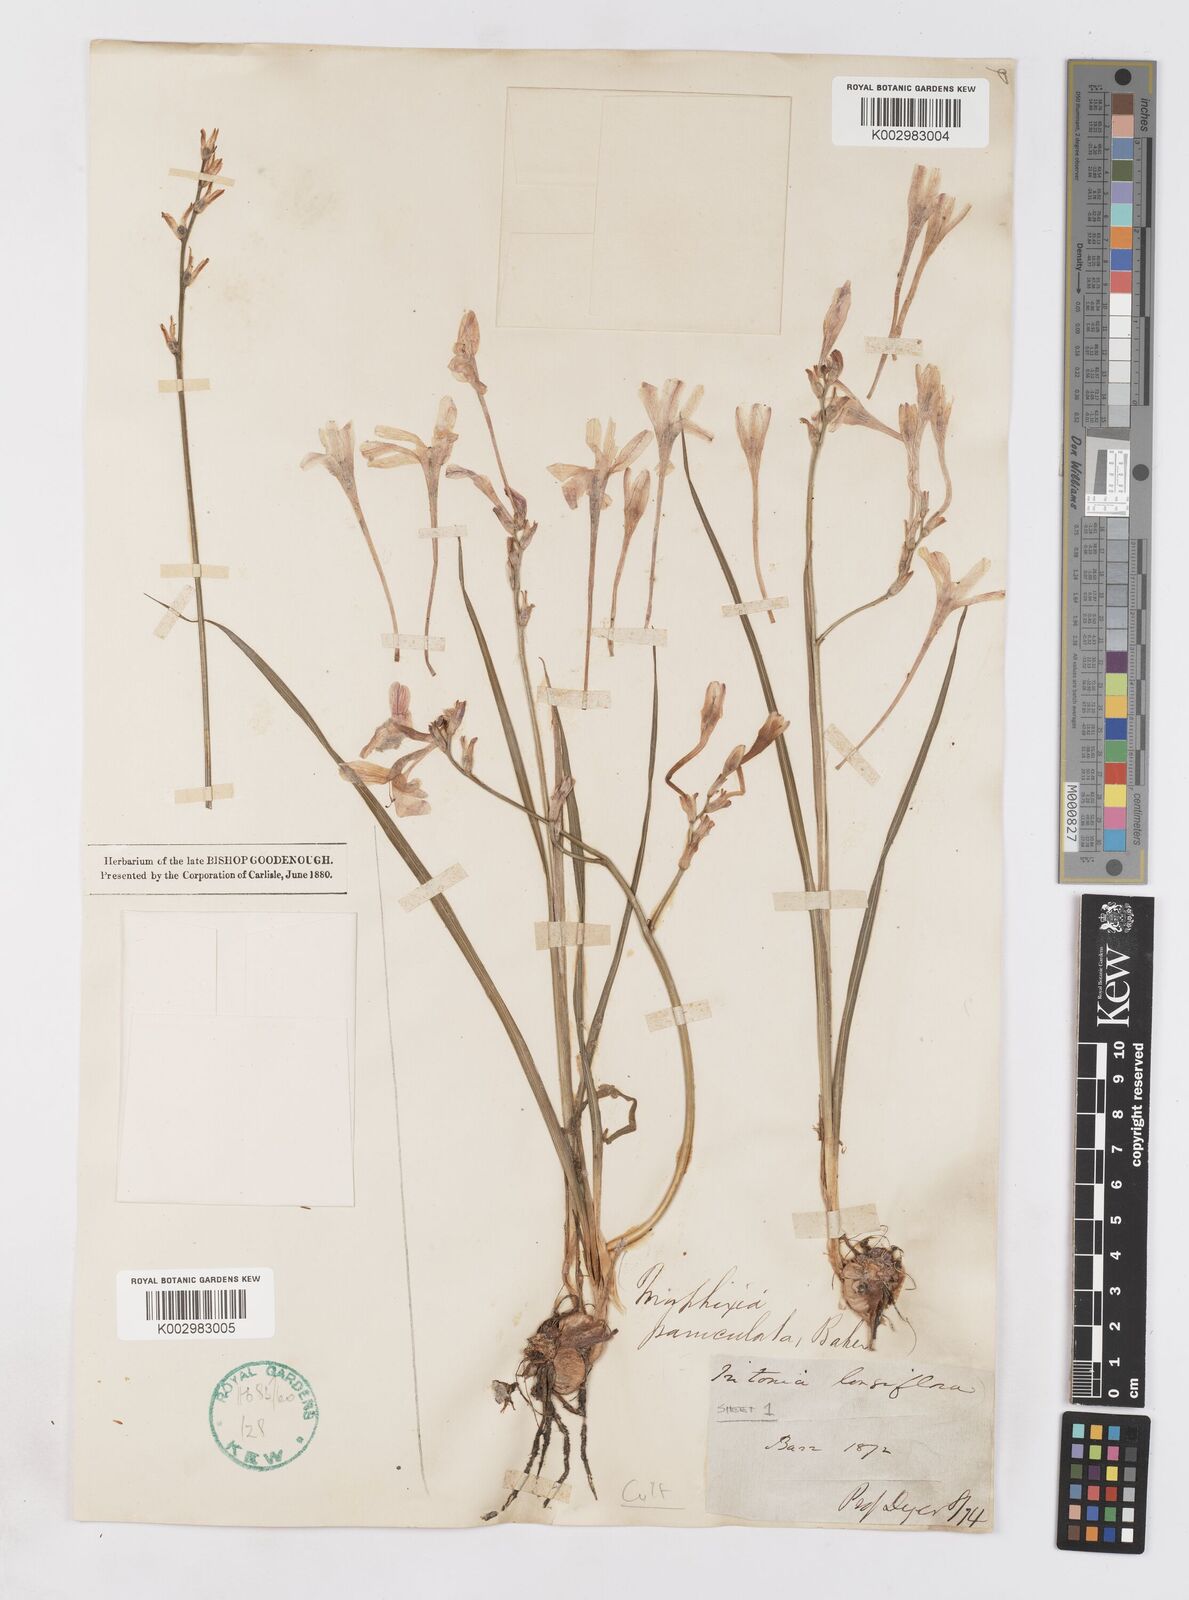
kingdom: Plantae
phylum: Tracheophyta
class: Liliopsida
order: Asparagales
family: Iridaceae
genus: Ixia
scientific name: Ixia paniculata
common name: Tubular corn-lily
